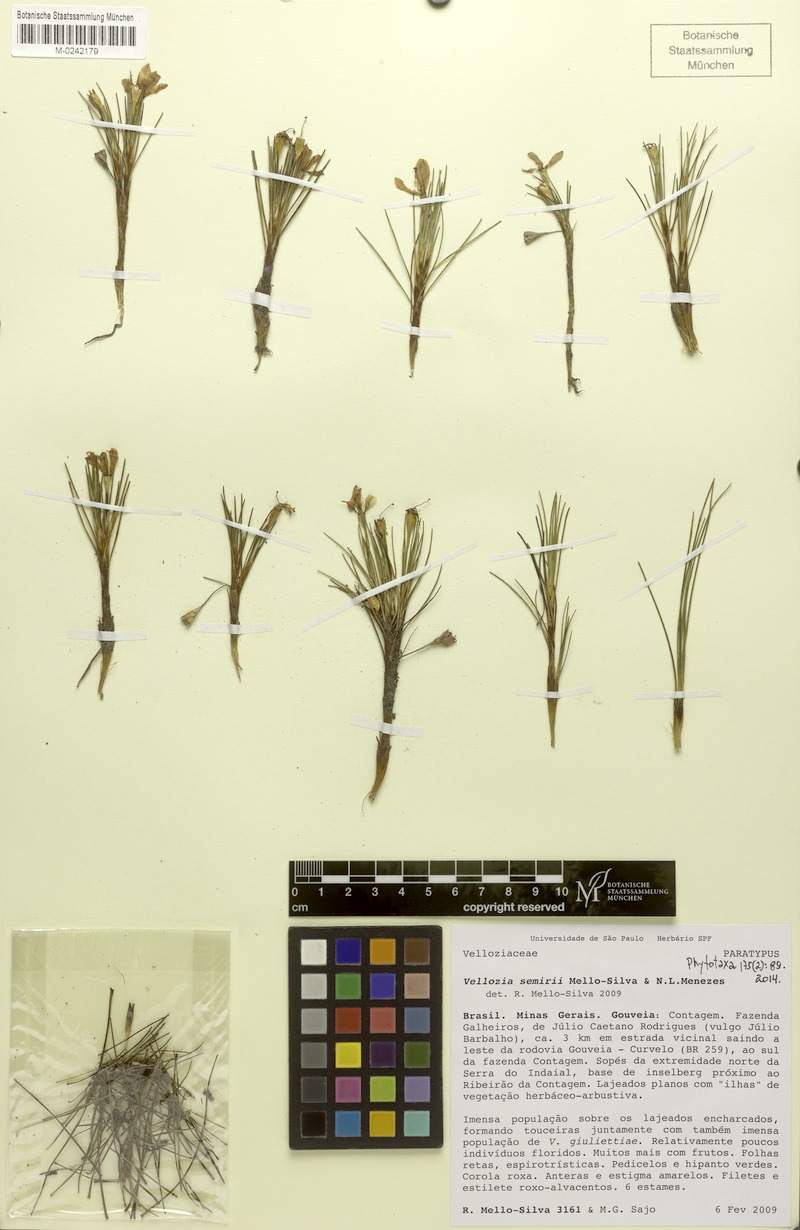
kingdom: Plantae
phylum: Tracheophyta
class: Liliopsida
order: Pandanales
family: Velloziaceae
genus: Vellozia
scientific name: Vellozia semirii
